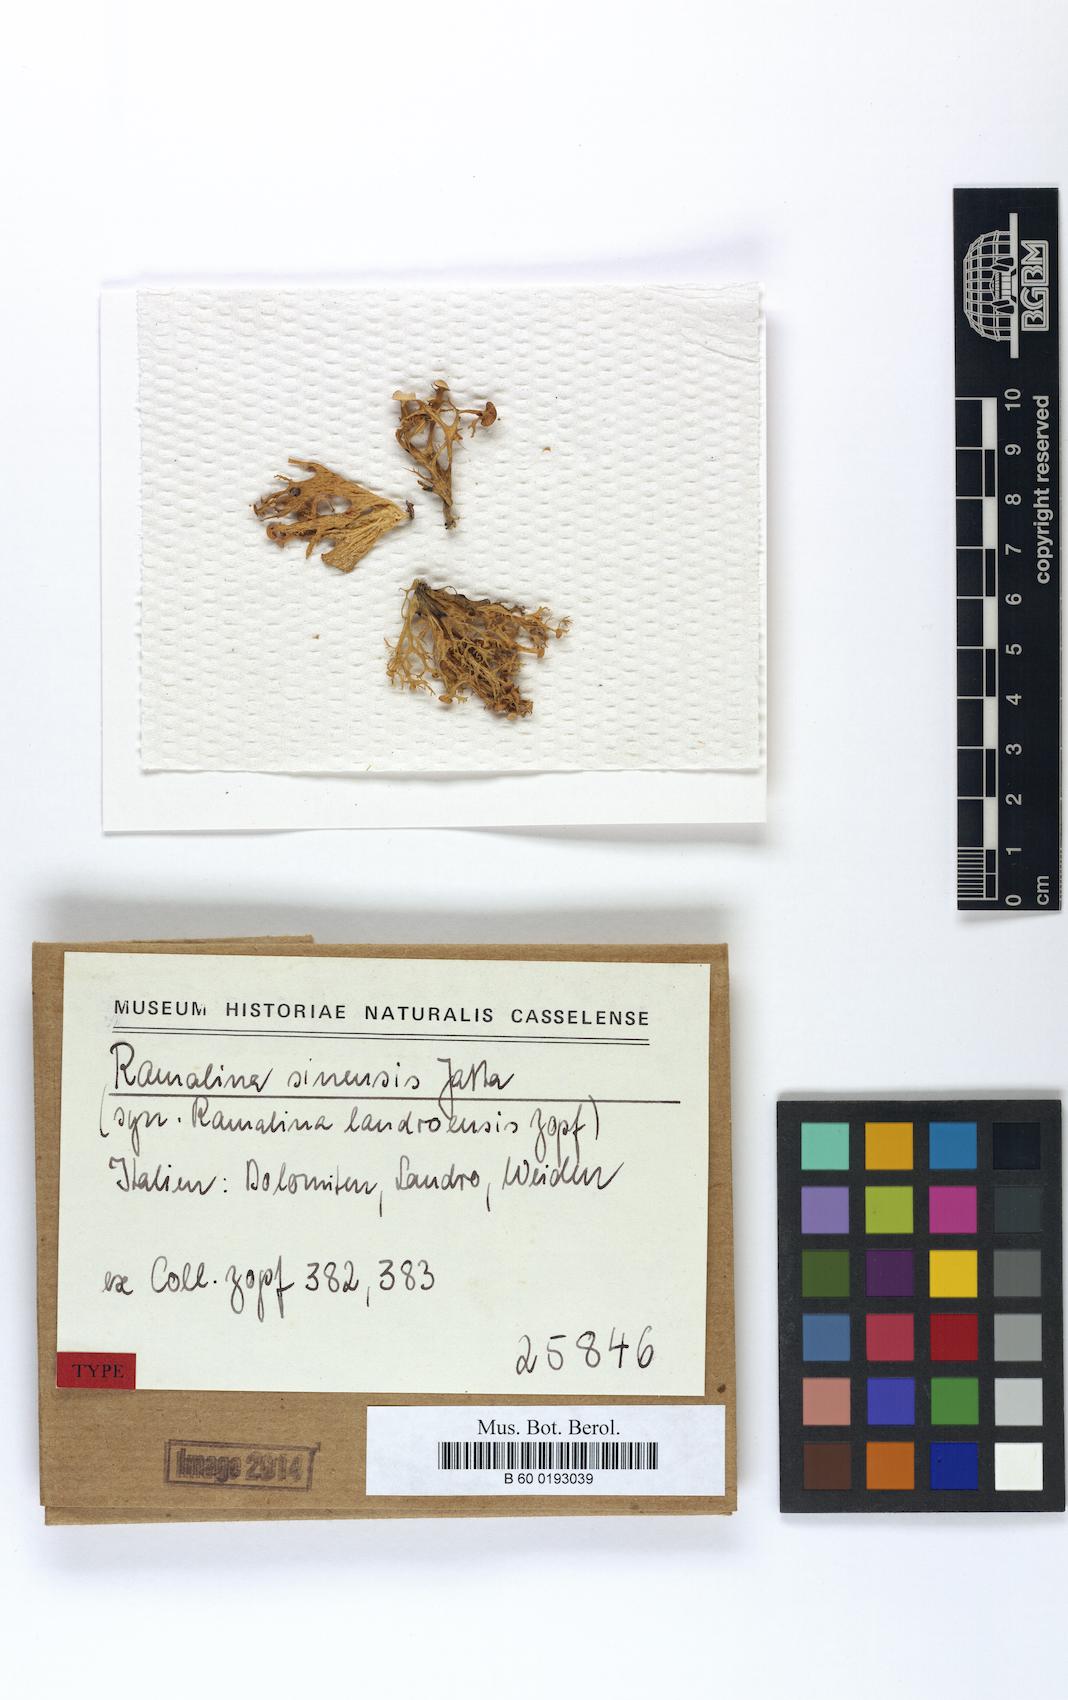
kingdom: Fungi
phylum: Ascomycota
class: Lecanoromycetes
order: Lecanorales
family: Ramalinaceae
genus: Ramalina
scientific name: Ramalina sinensis
